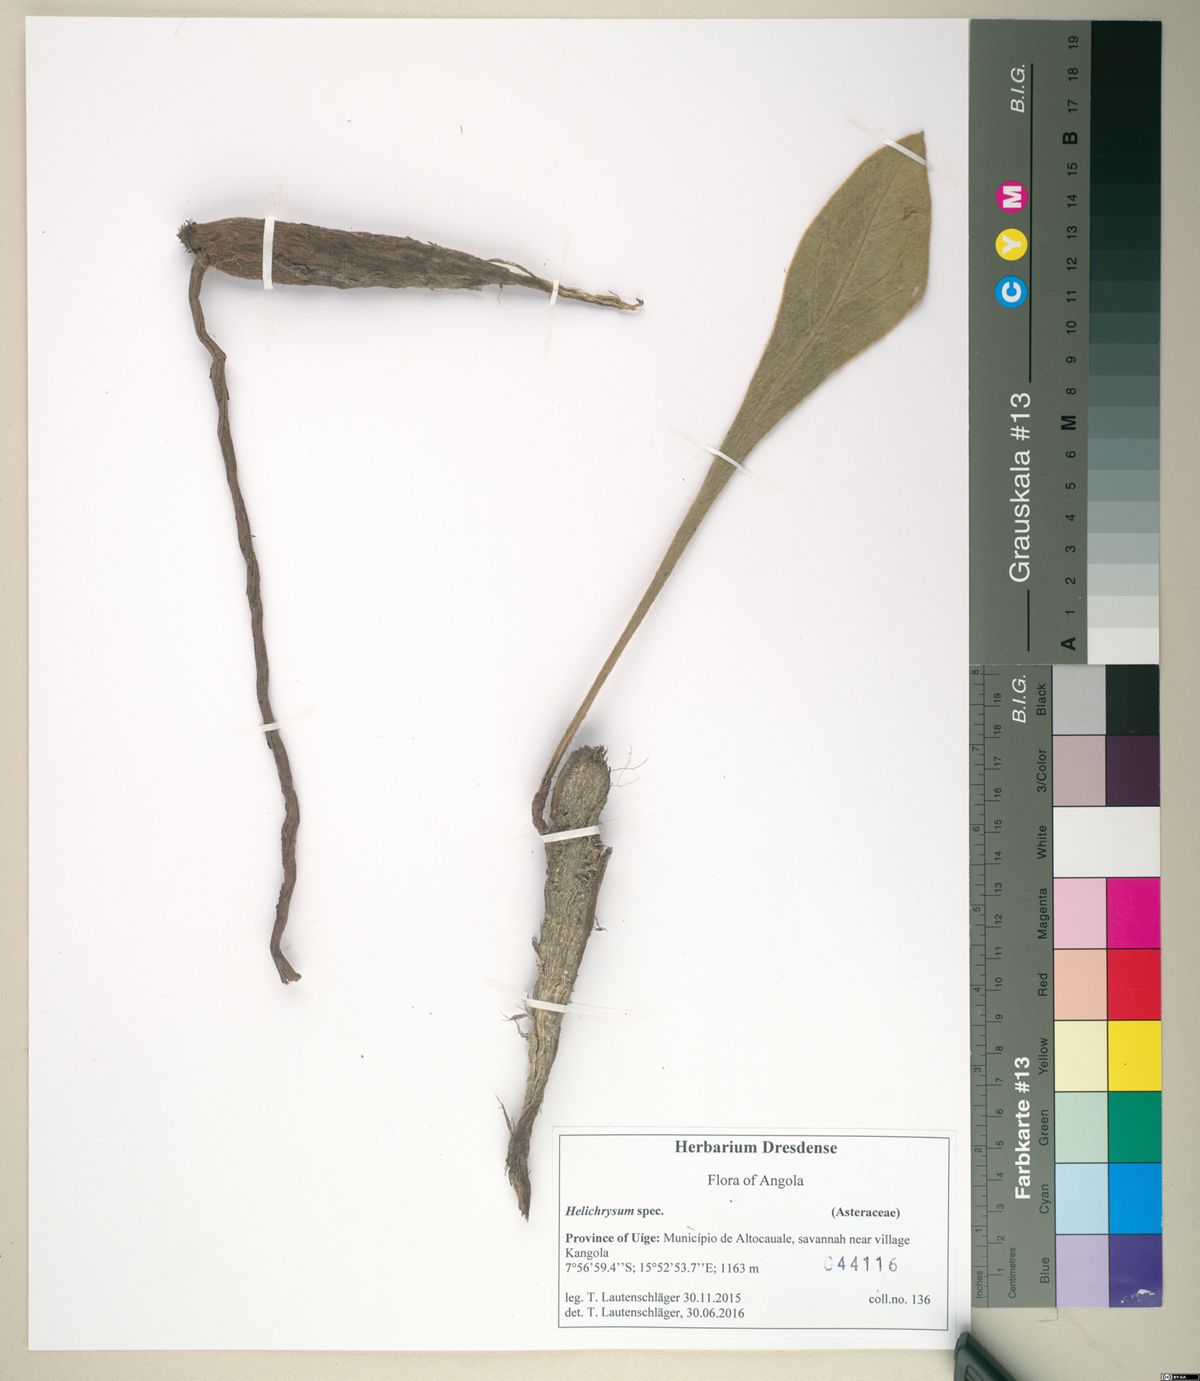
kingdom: Plantae
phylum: Tracheophyta
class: Magnoliopsida
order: Asterales
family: Asteraceae
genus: Helichrysum
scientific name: Helichrysum
